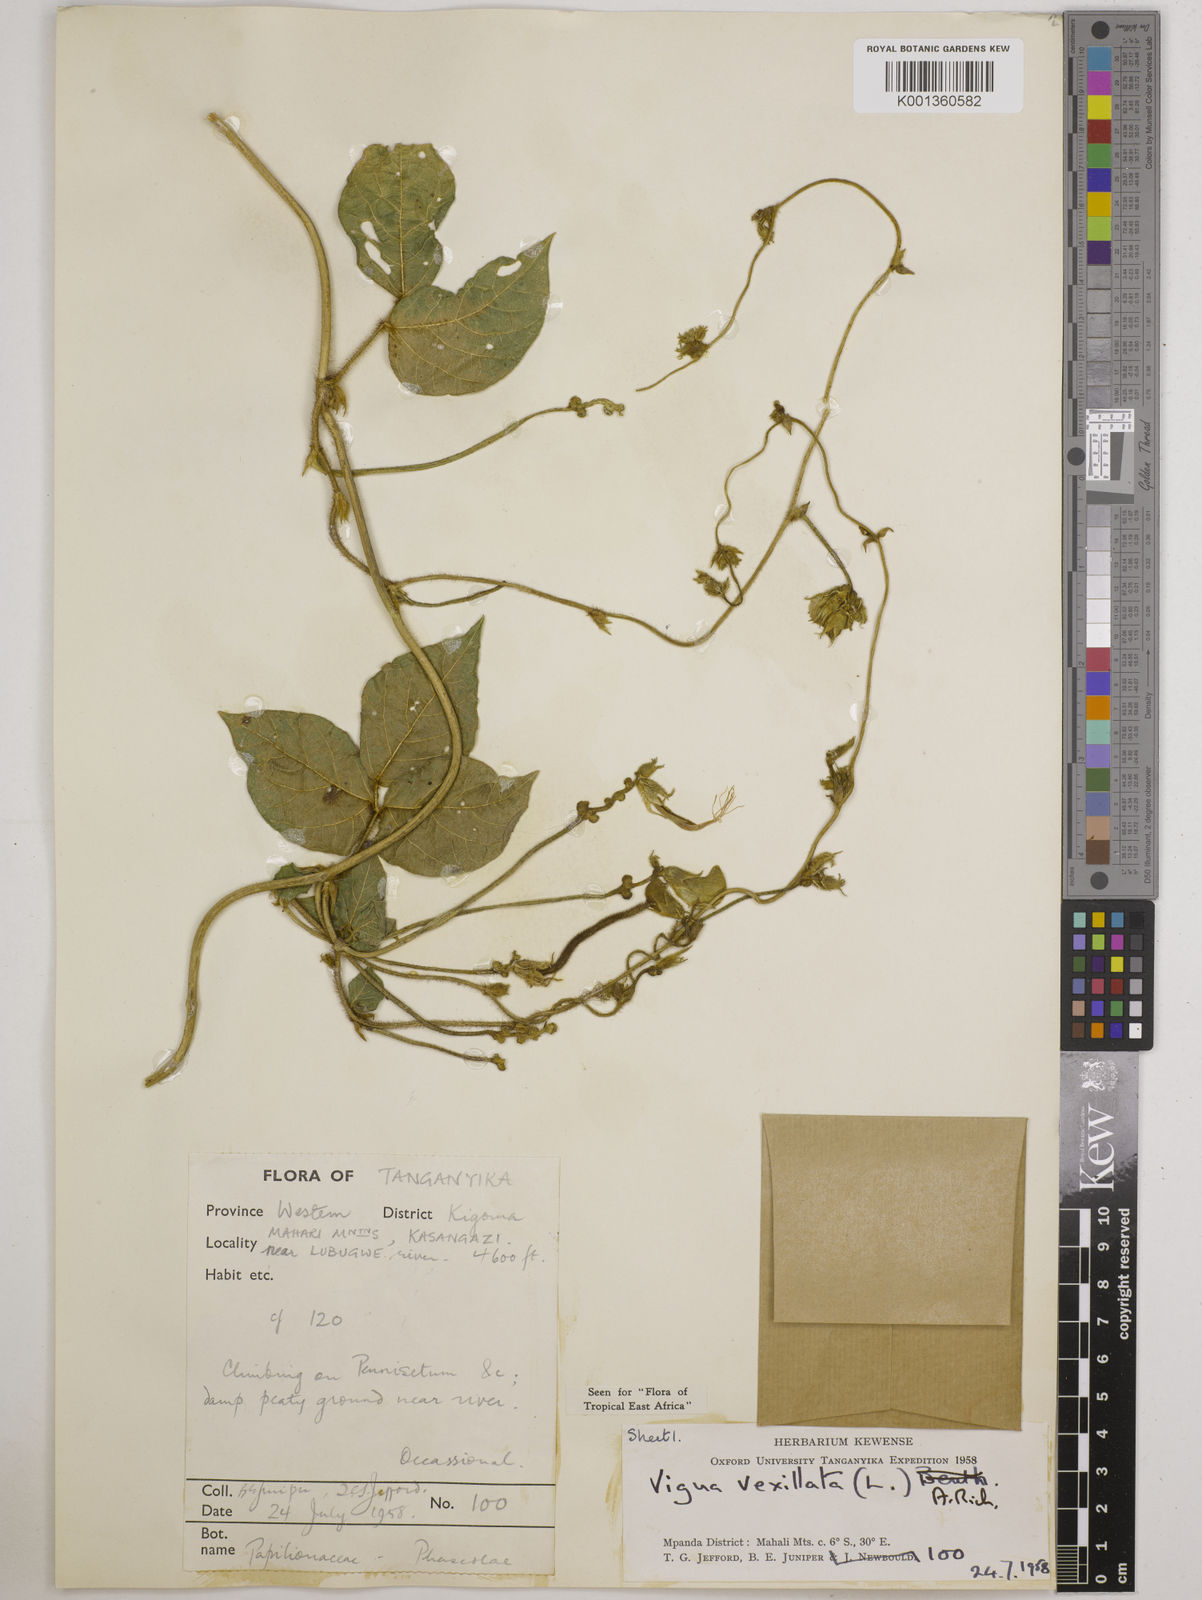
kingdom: Plantae
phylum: Tracheophyta
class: Magnoliopsida
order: Fabales
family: Fabaceae
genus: Vigna
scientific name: Vigna vexillata
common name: Zombi pea
